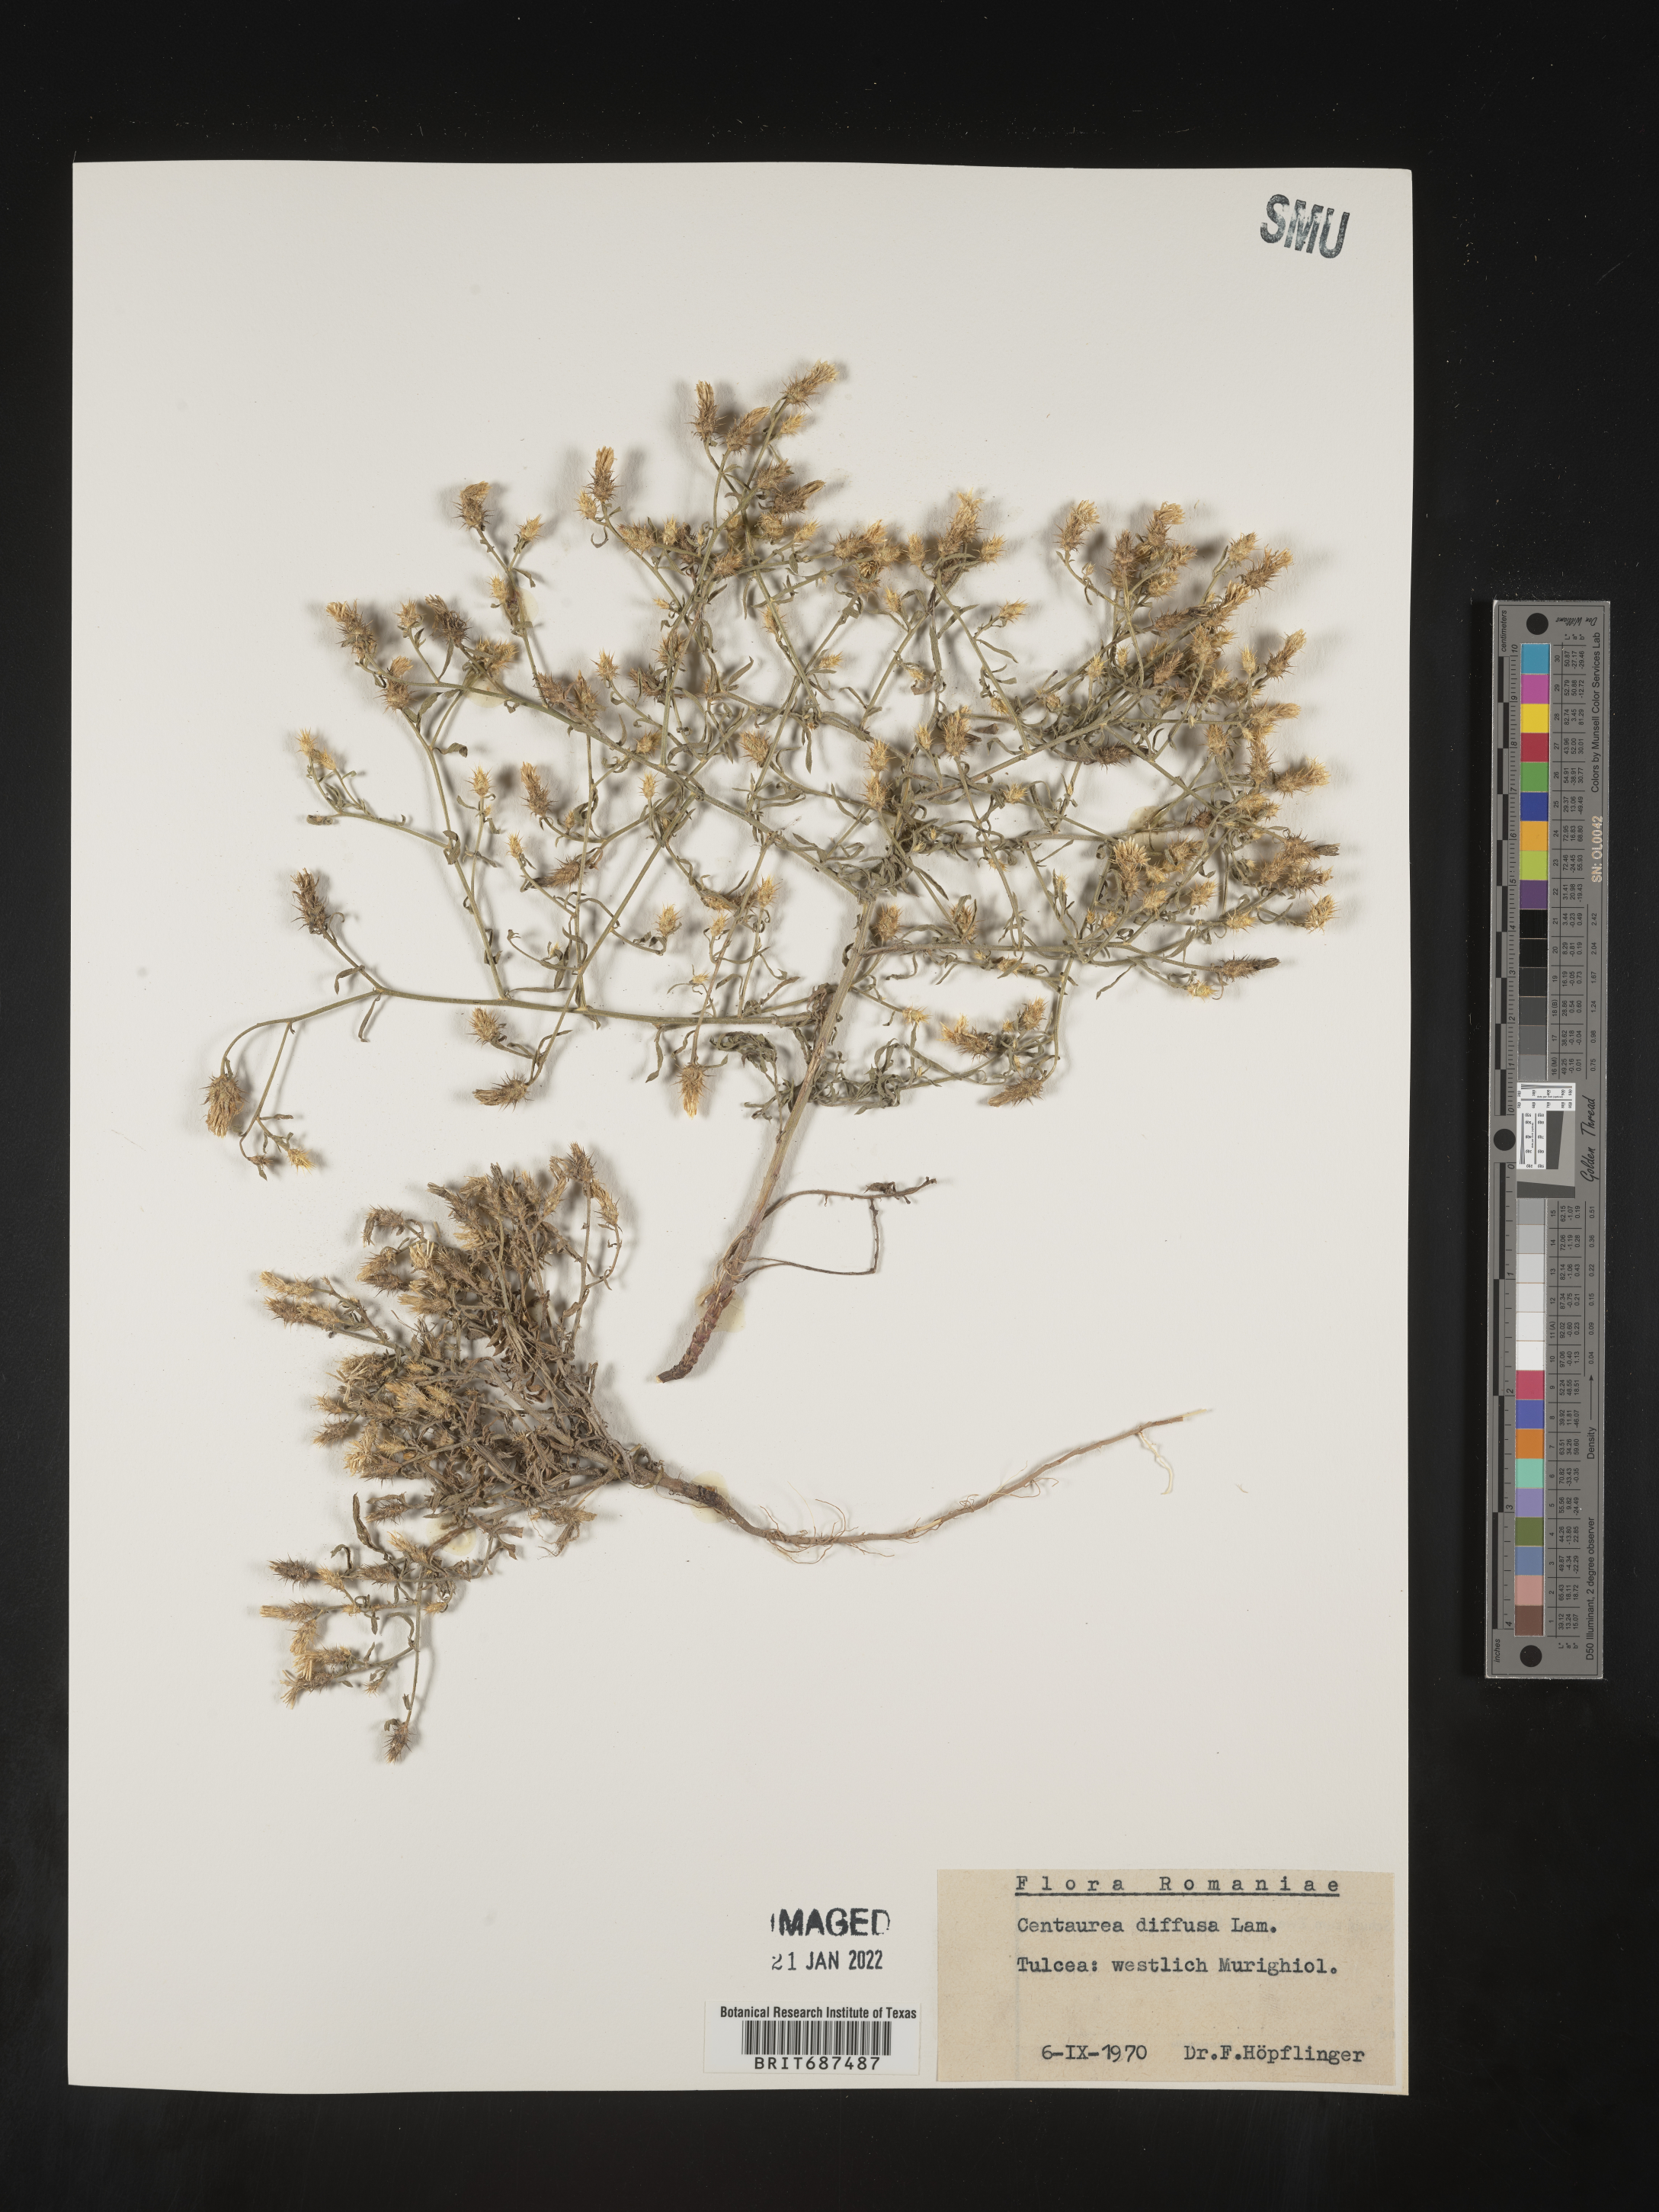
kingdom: Plantae
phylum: Tracheophyta
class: Magnoliopsida
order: Asterales
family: Asteraceae
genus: Centaurea
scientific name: Centaurea
